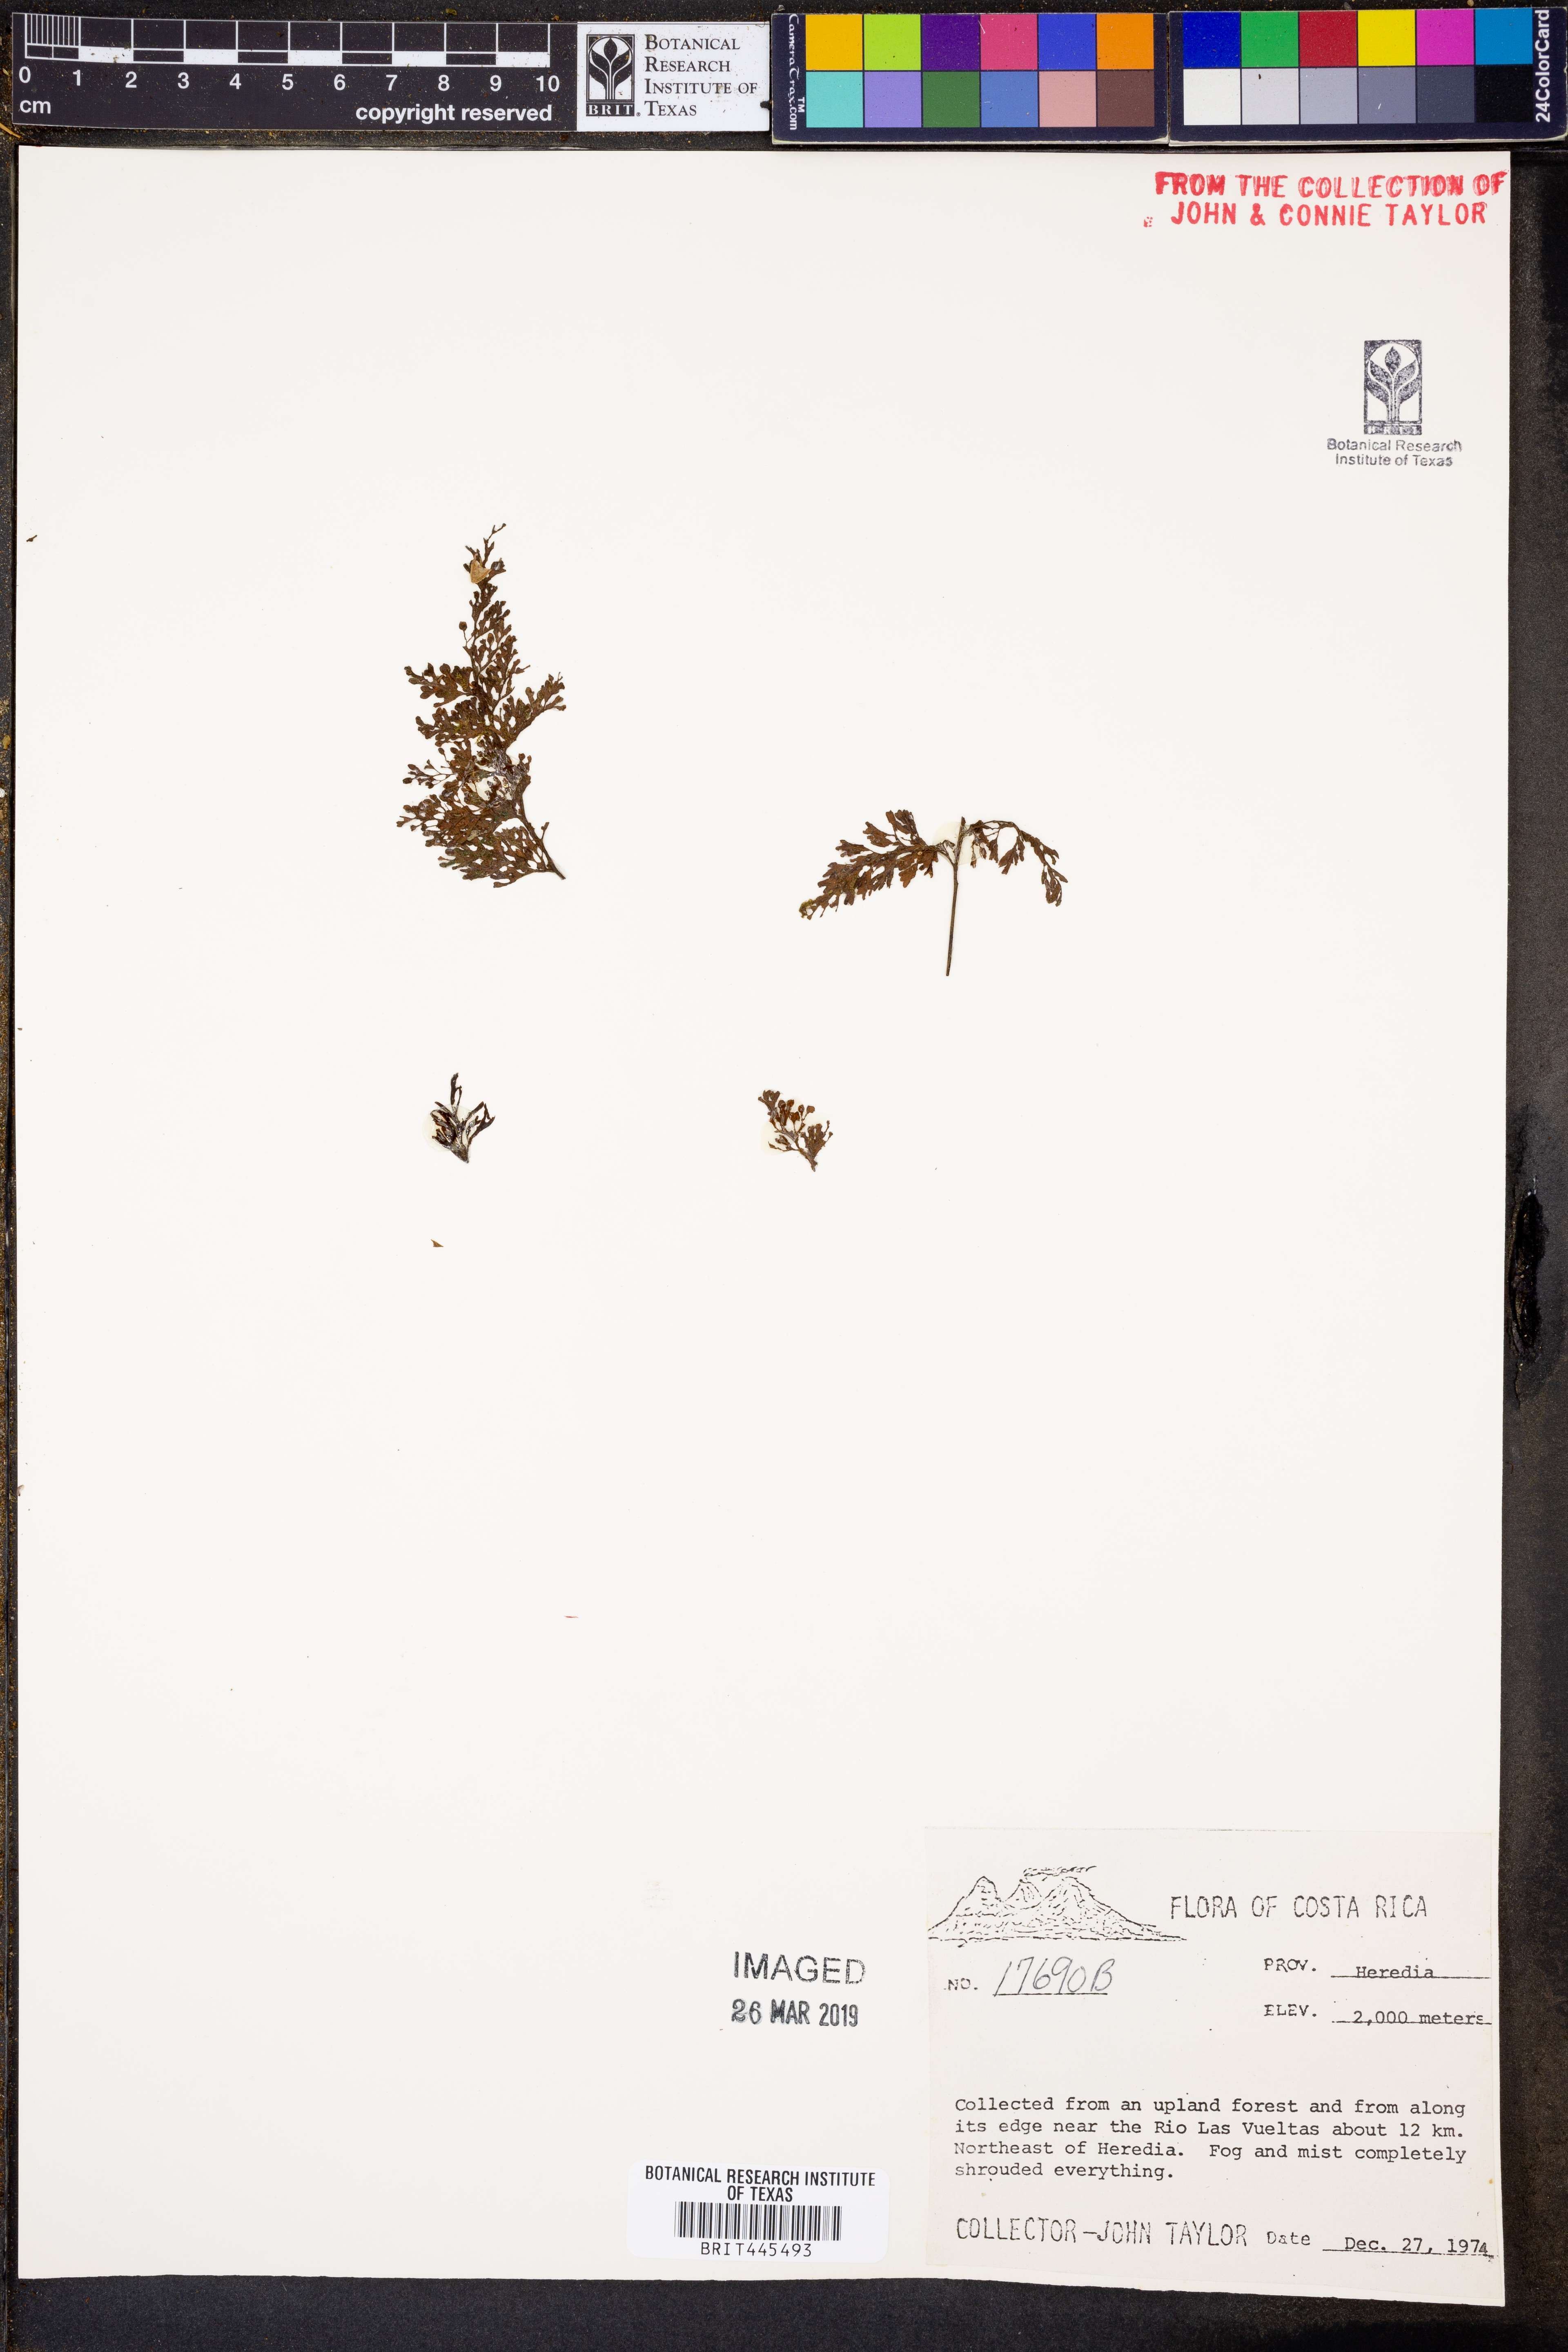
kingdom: Plantae
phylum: Tracheophyta
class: Polypodiopsida
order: Hymenophyllales
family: Hymenophyllaceae
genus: Hymenophyllum
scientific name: Hymenophyllum
